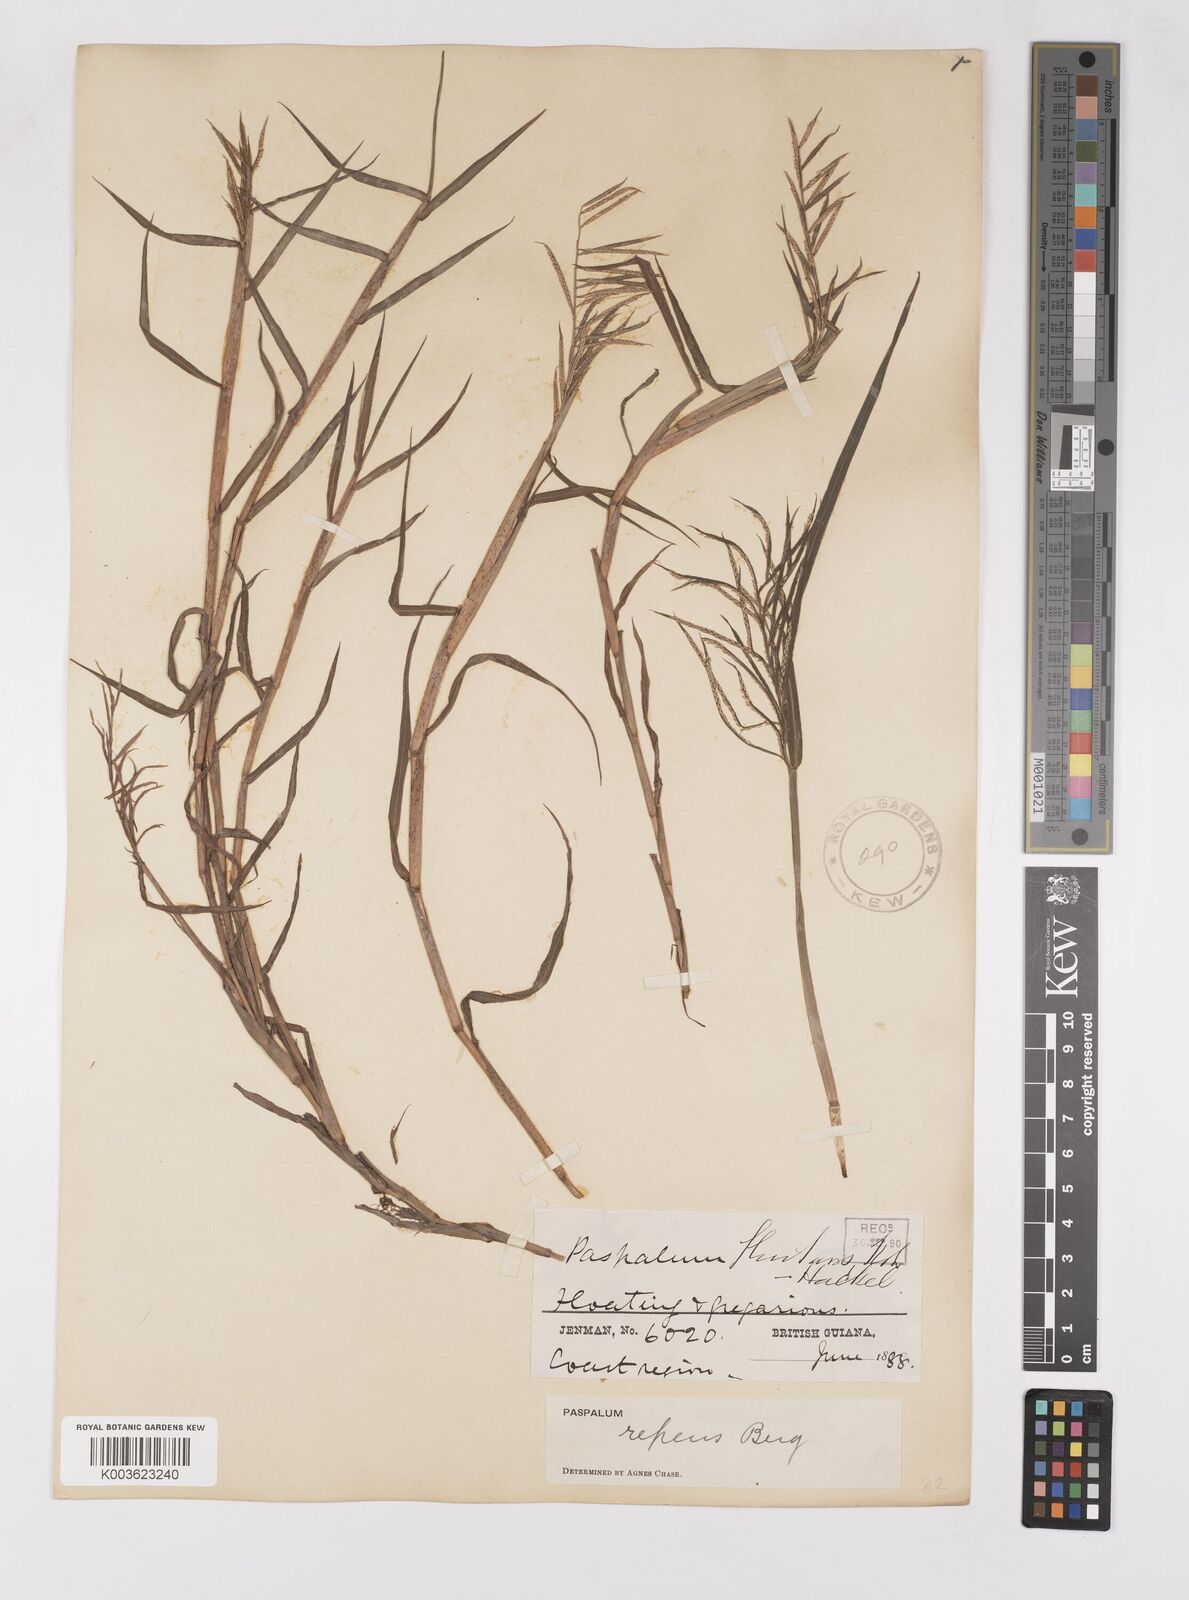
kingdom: Plantae
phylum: Tracheophyta
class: Liliopsida
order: Poales
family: Poaceae
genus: Paspalum
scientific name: Paspalum repens
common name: Water paspalum
